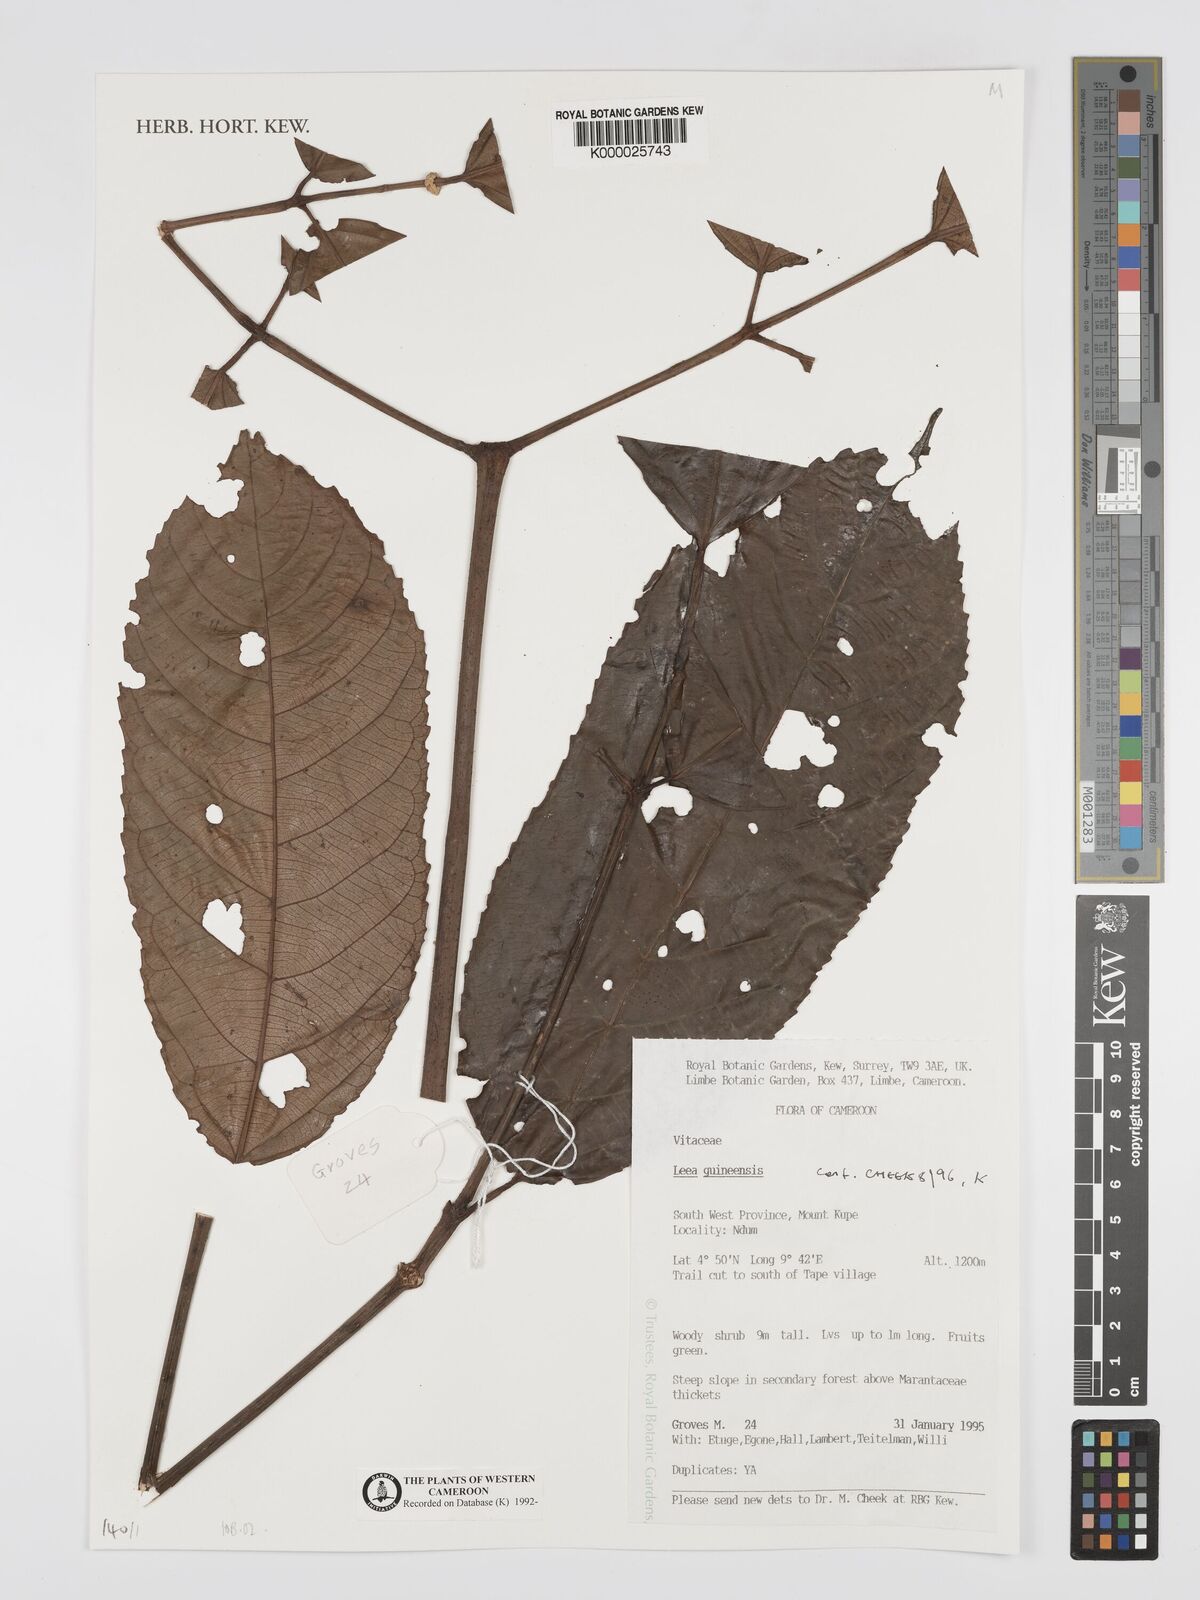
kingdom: Plantae
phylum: Tracheophyta
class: Magnoliopsida
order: Vitales
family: Vitaceae
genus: Leea
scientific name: Leea guineensis
